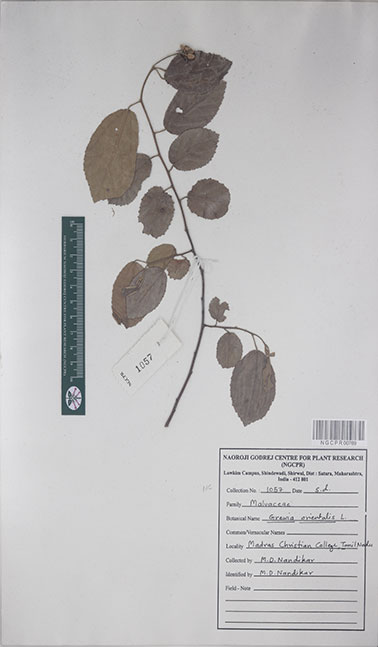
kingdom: Plantae
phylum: Tracheophyta
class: Magnoliopsida
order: Malvales
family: Malvaceae
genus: Grewia
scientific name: Grewia orientalis
